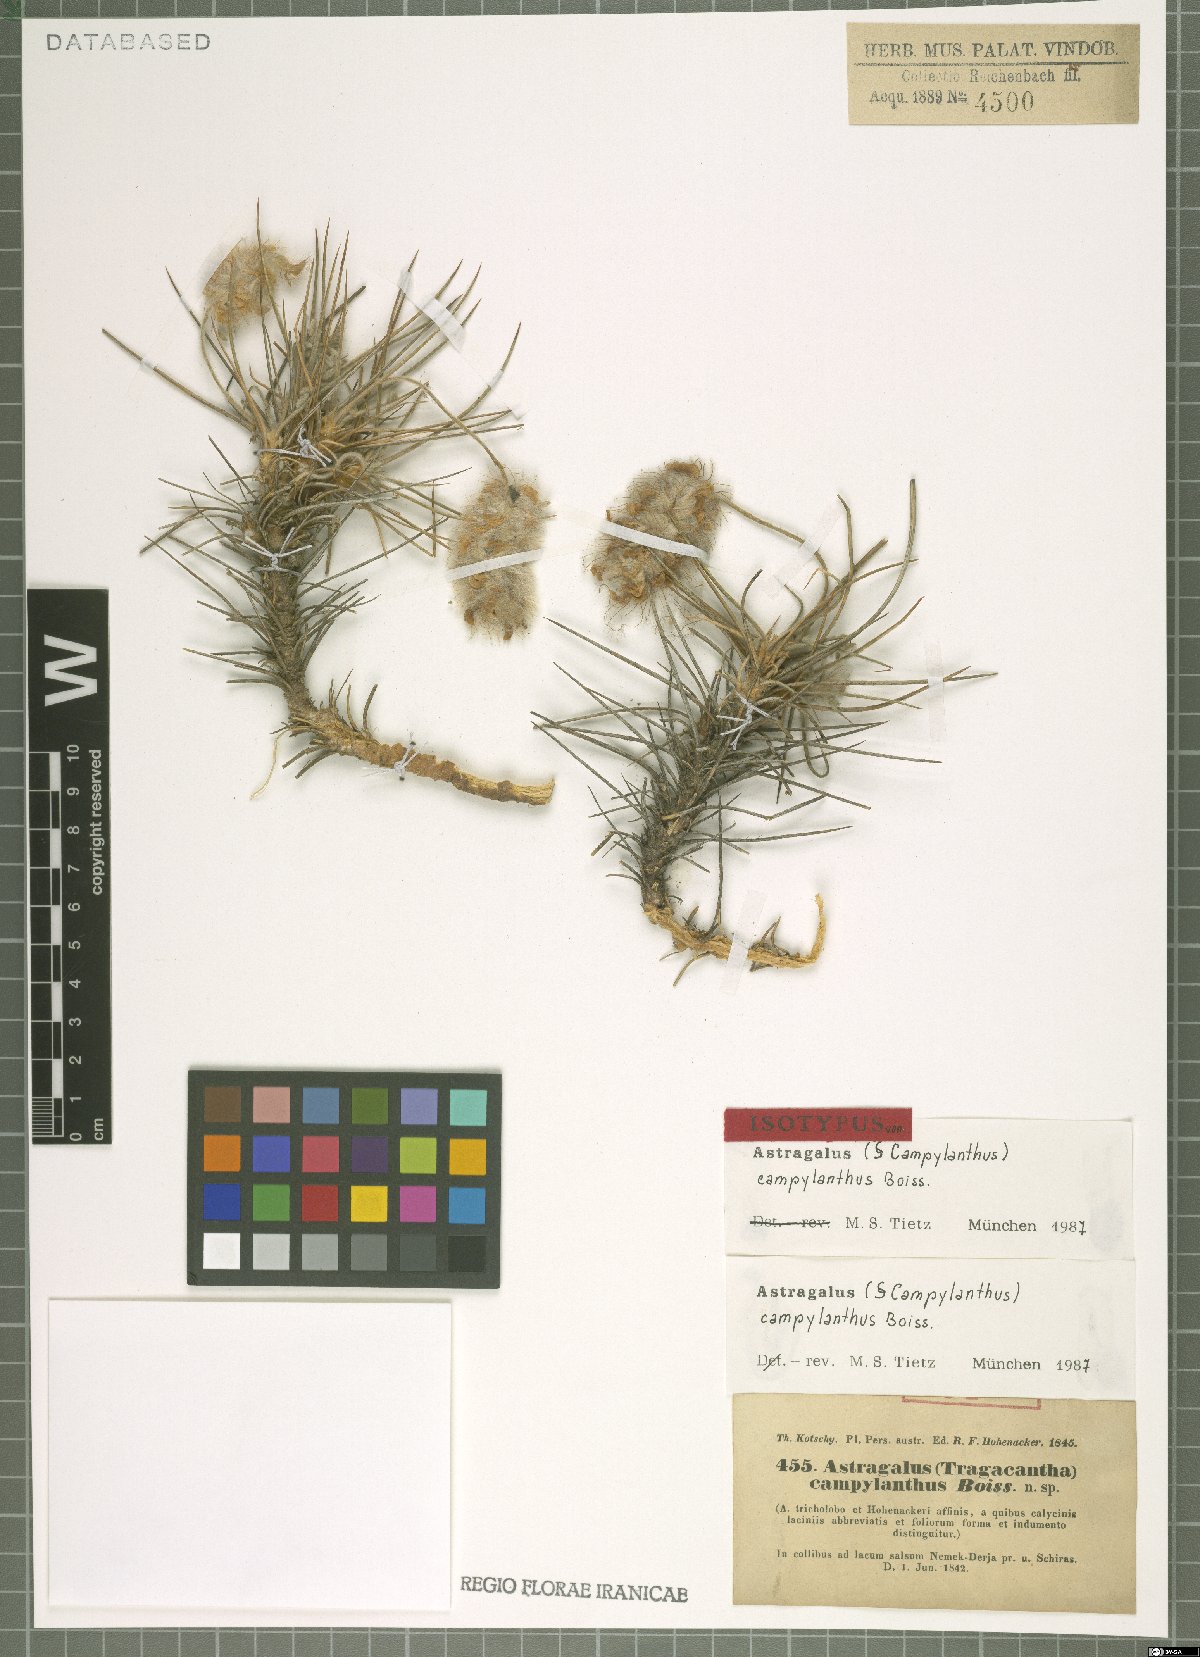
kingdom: Plantae
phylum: Tracheophyta
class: Magnoliopsida
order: Fabales
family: Fabaceae
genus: Astragalus
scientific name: Astragalus campylanthus
